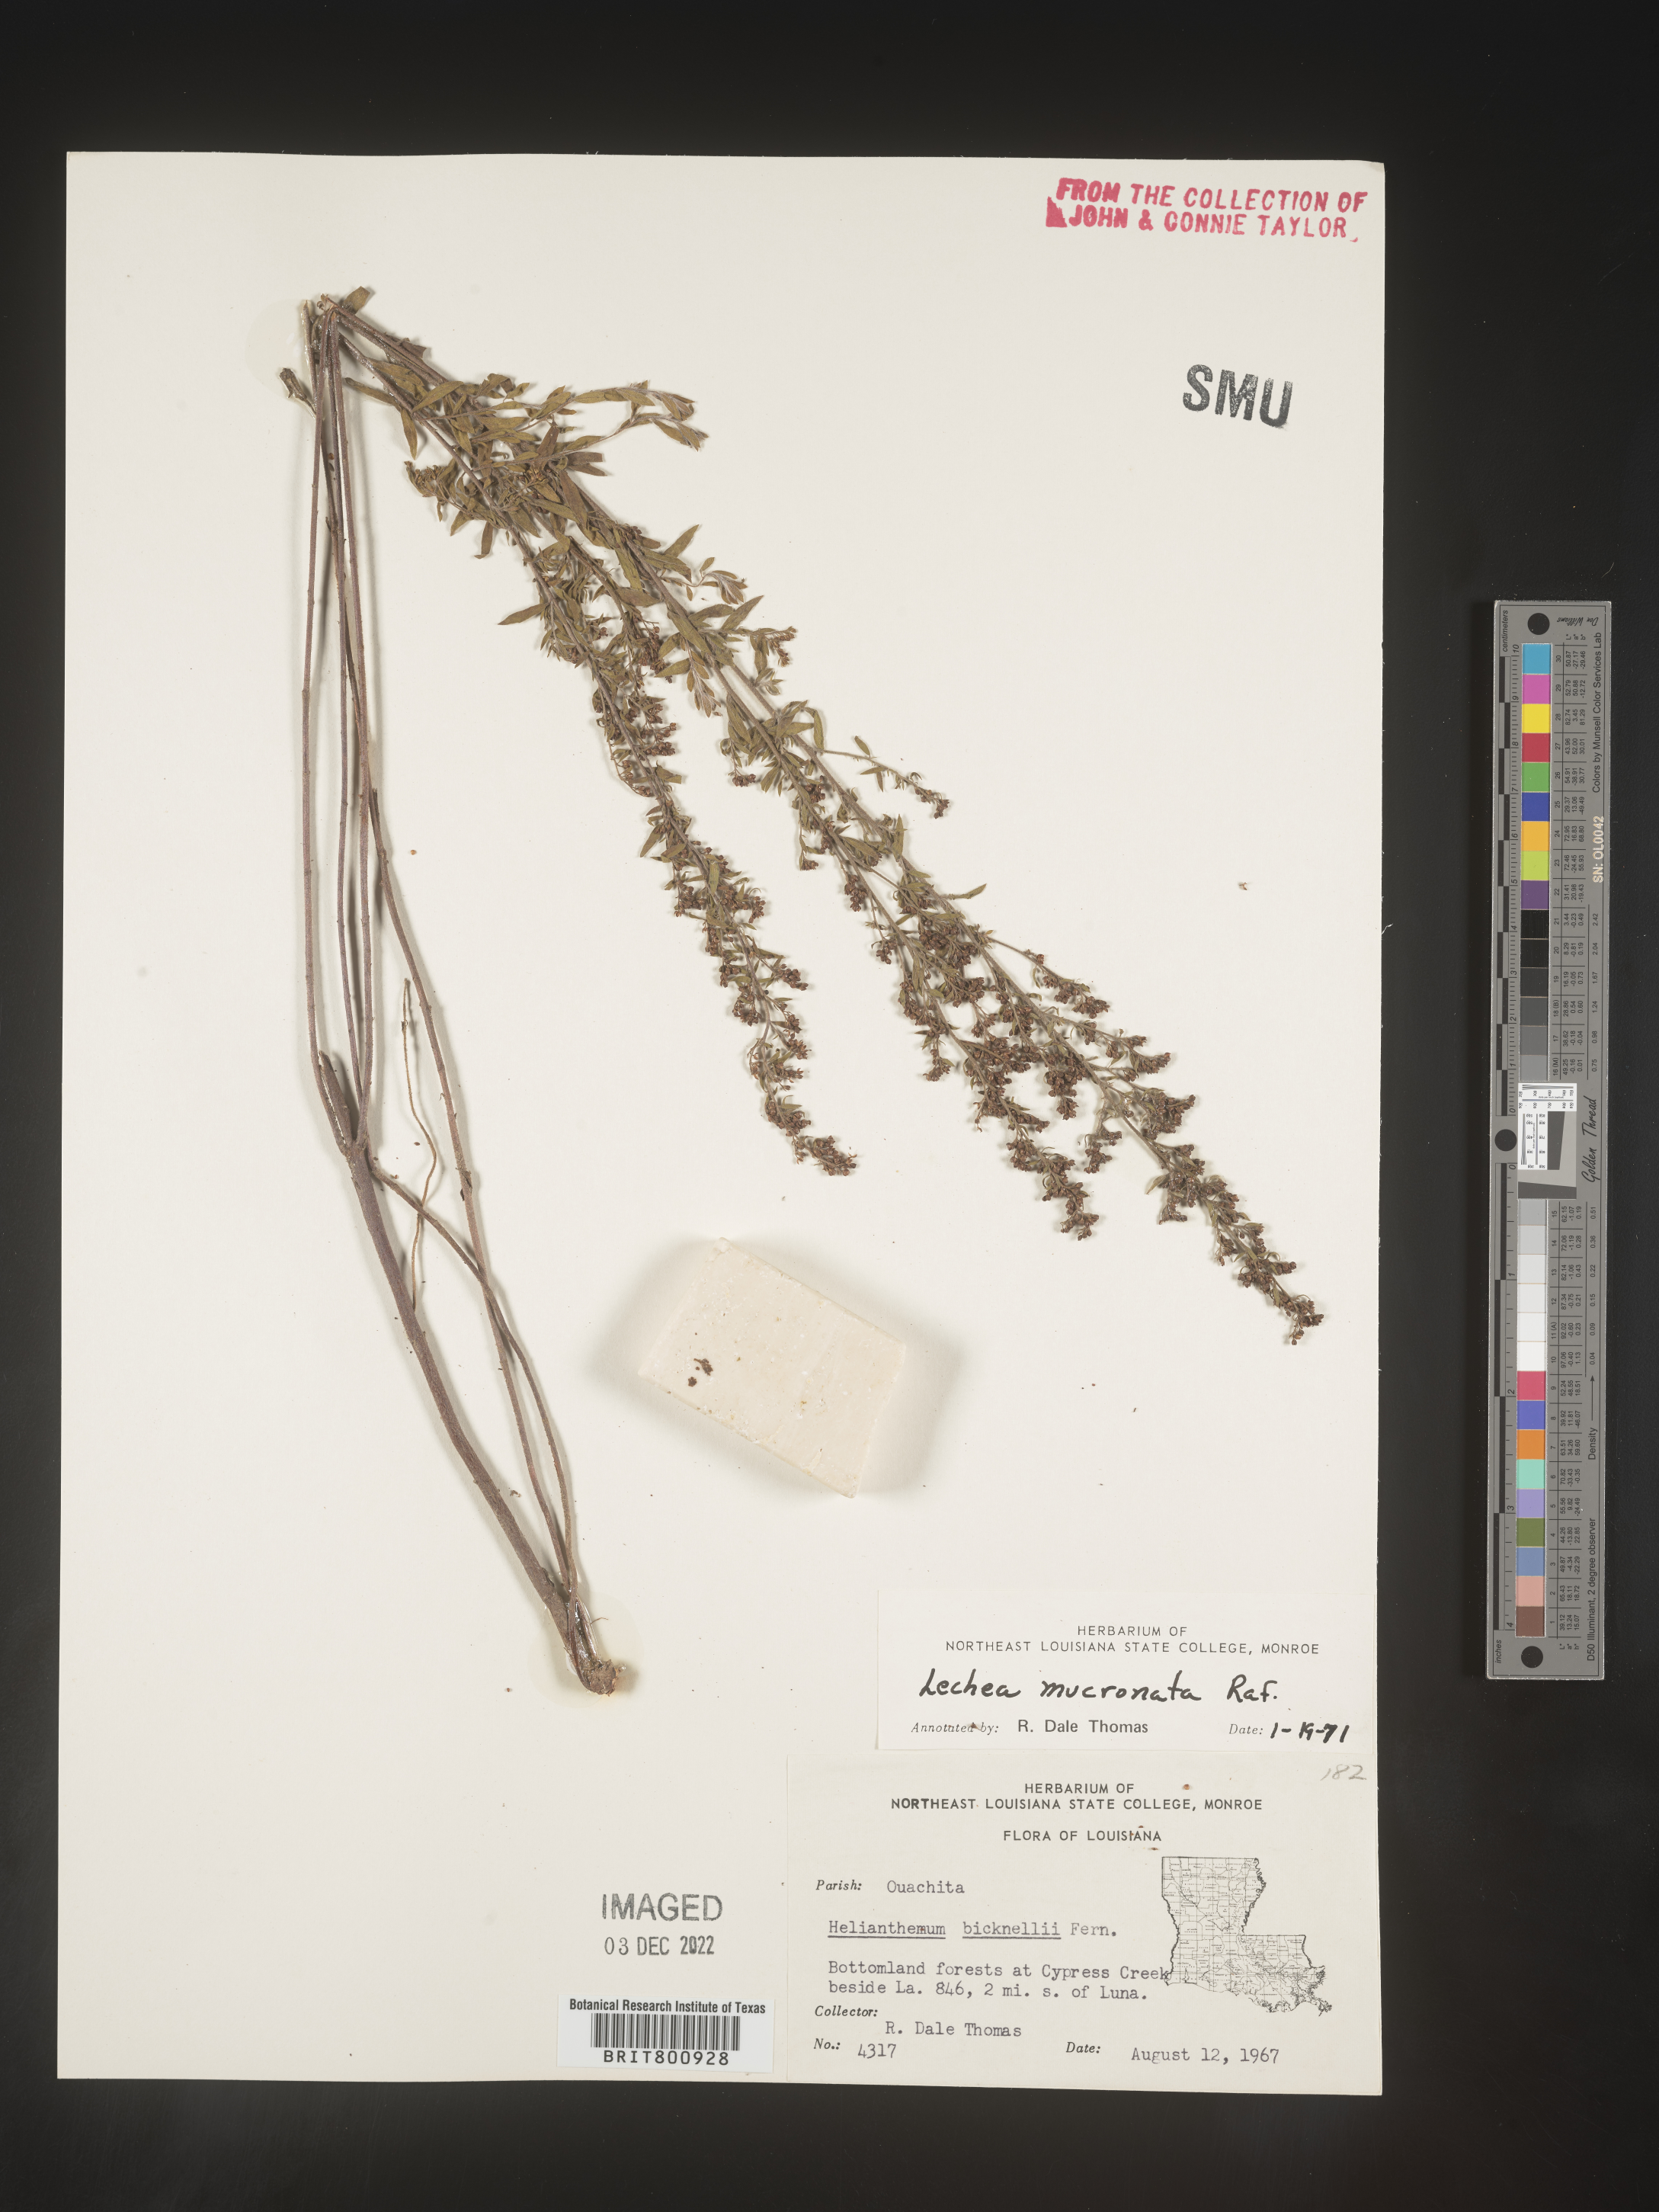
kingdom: Plantae
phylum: Tracheophyta
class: Magnoliopsida
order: Malvales
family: Cistaceae
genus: Lechea
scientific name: Lechea mucronata
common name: Hairy pinweed
